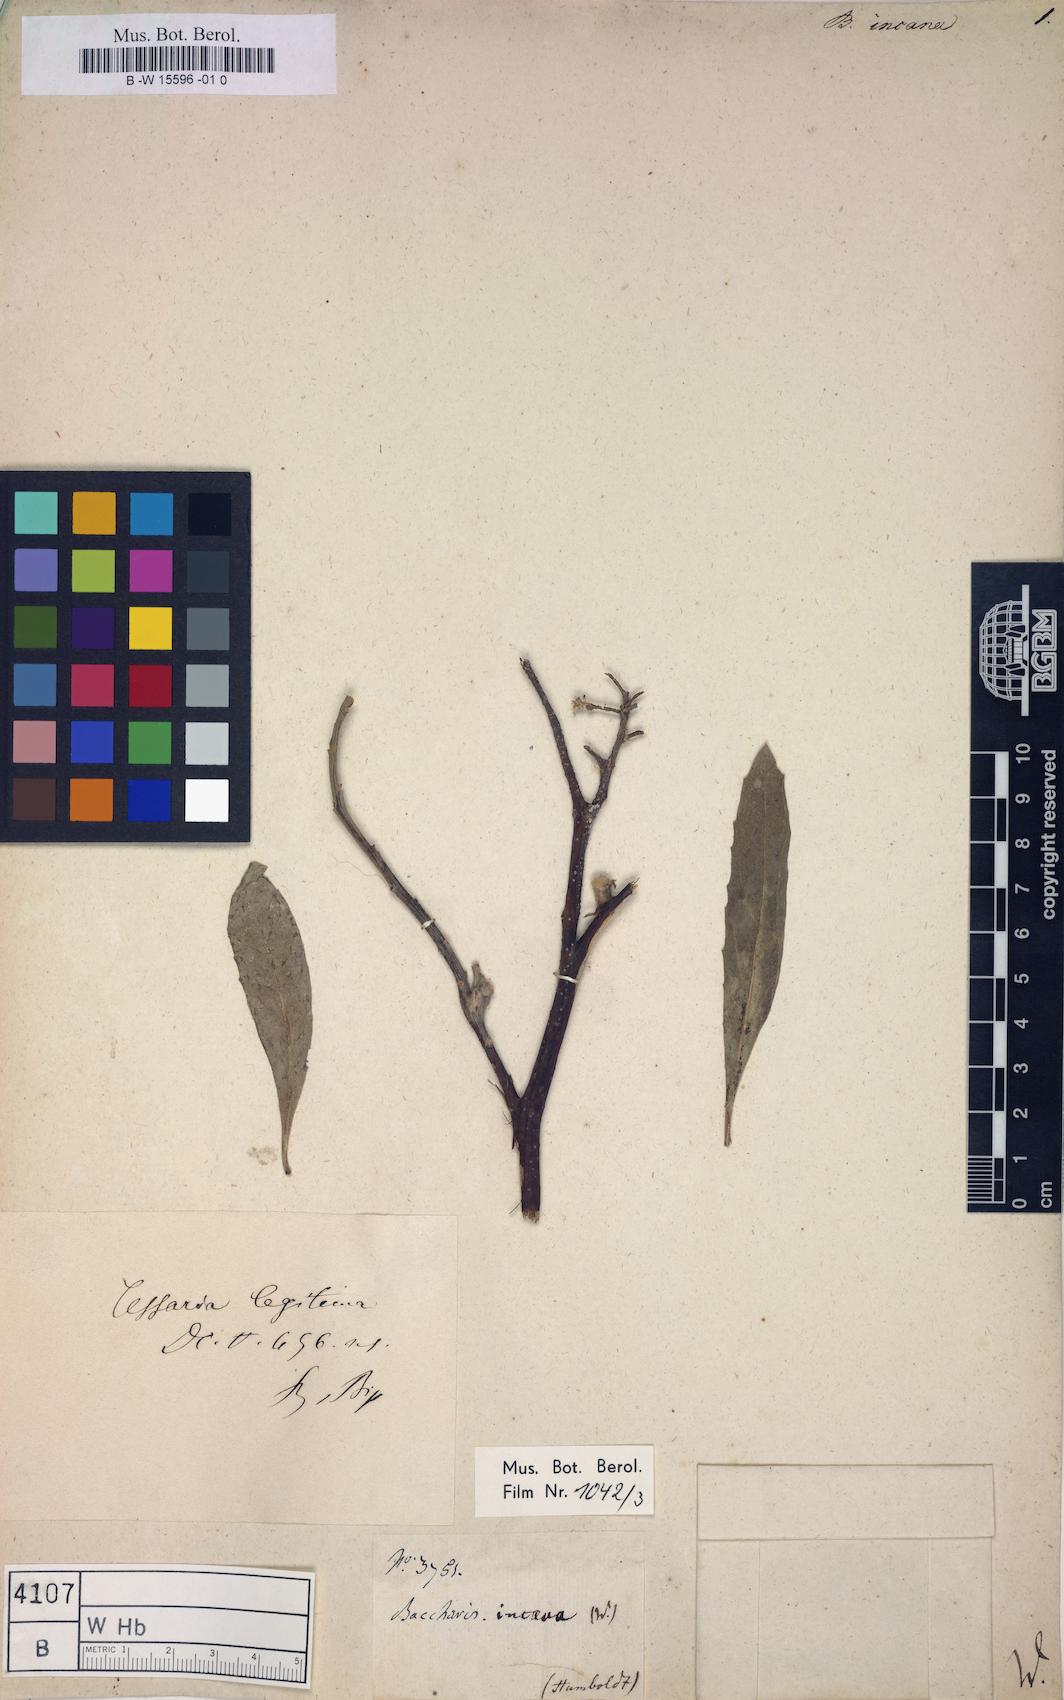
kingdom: Plantae
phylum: Tracheophyta
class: Magnoliopsida
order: Asterales
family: Asteraceae
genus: Baccharis
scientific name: Baccharis incarum
